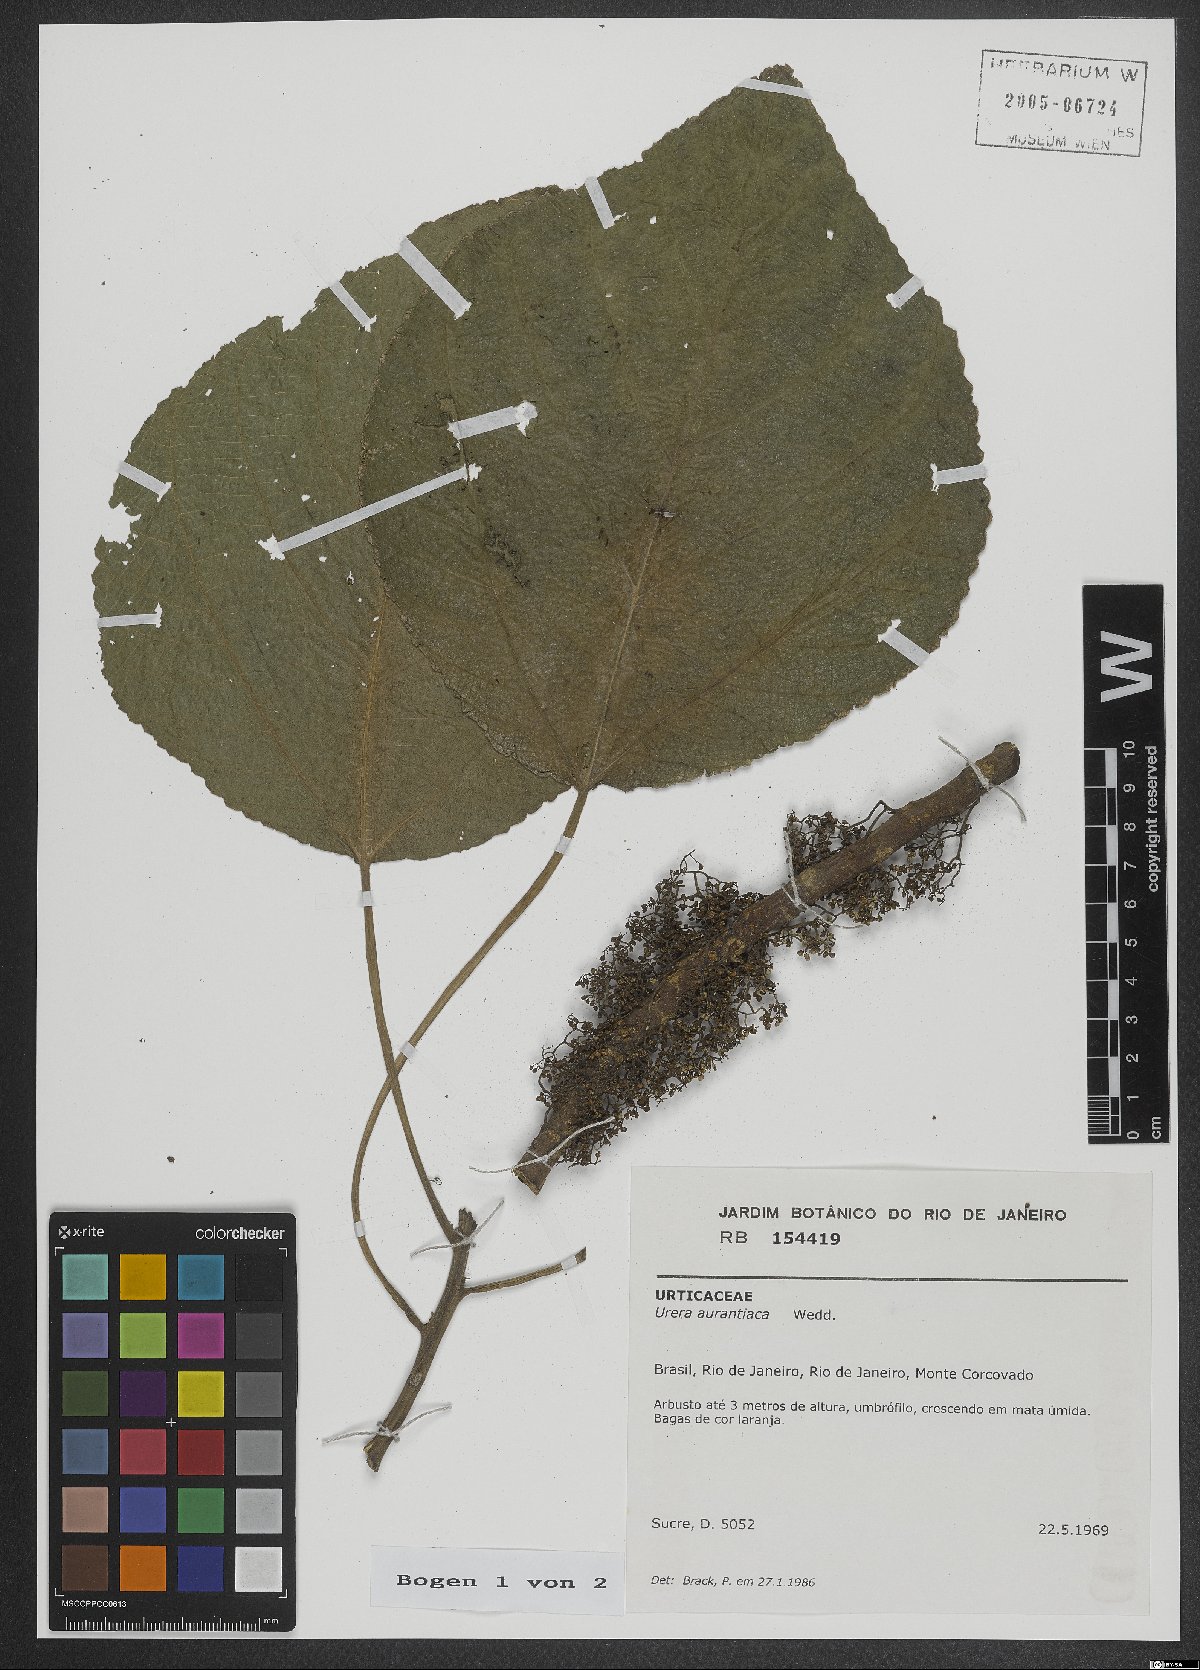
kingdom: Plantae
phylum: Tracheophyta
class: Magnoliopsida
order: Rosales
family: Urticaceae
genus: Urera
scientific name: Urera aurantiaca
